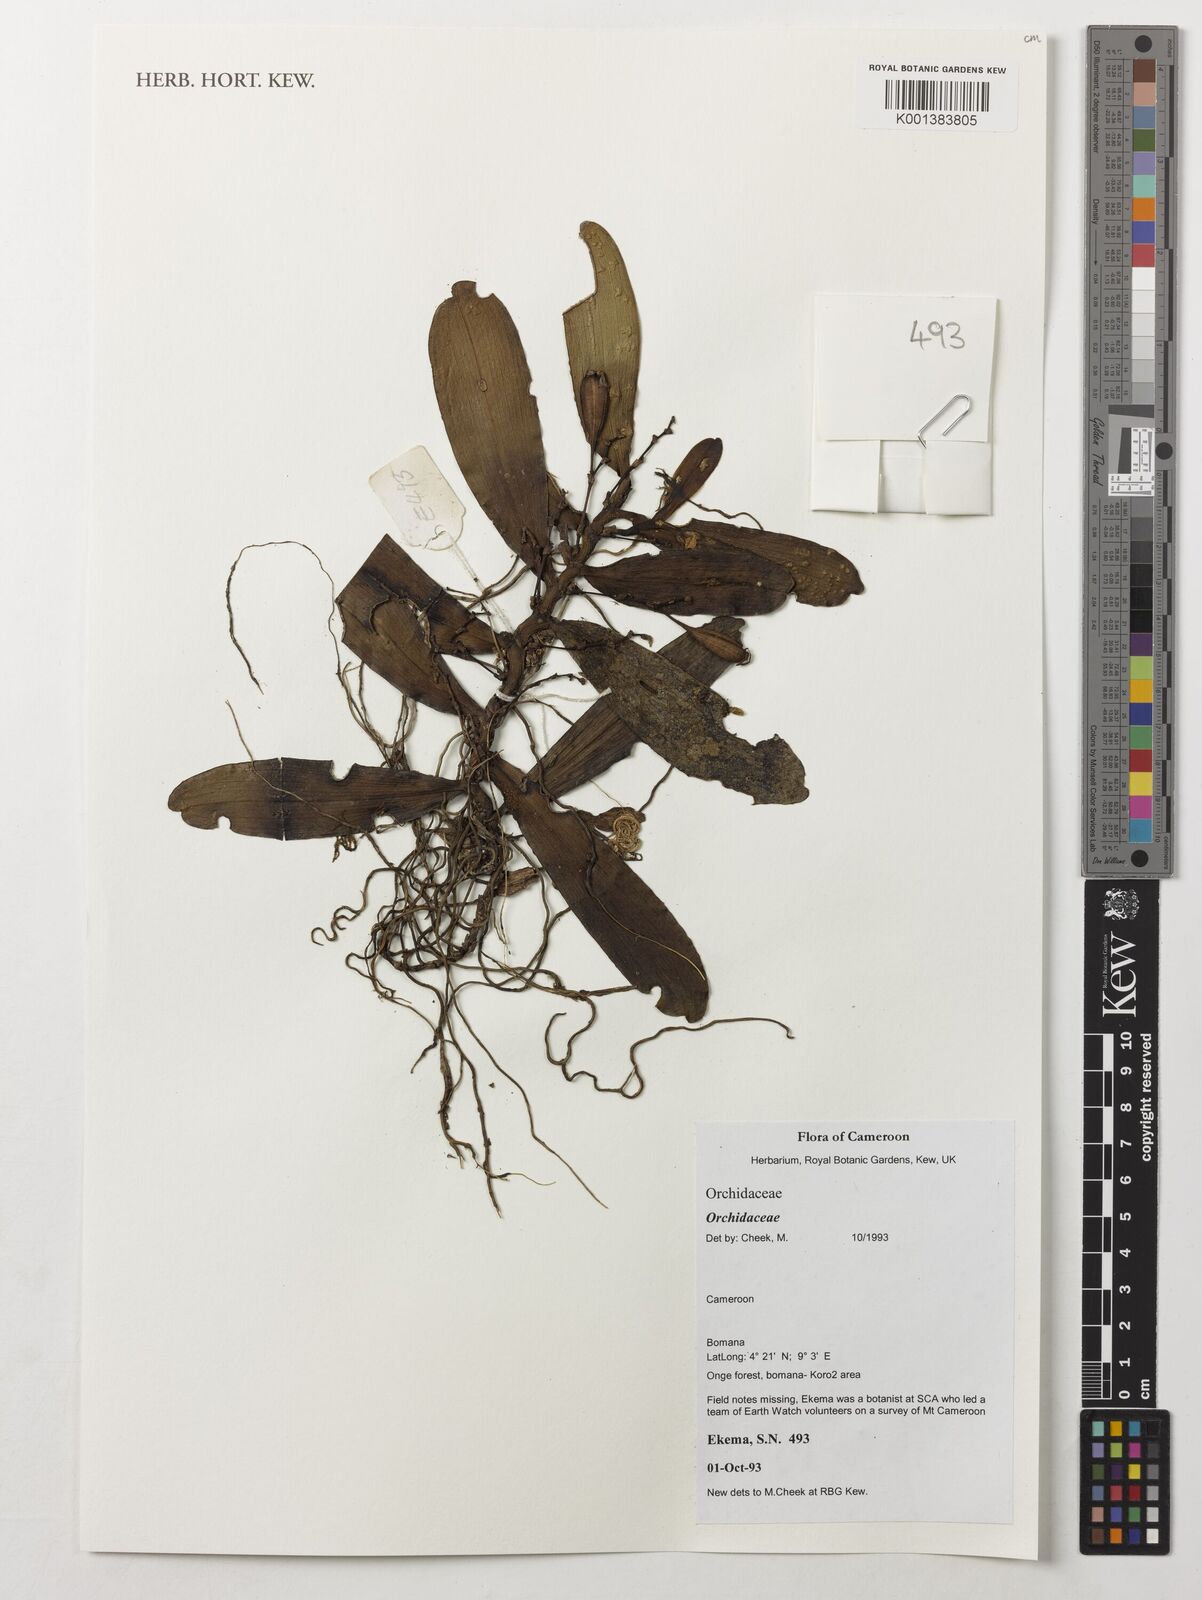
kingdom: Plantae
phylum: Tracheophyta
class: Liliopsida
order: Asparagales
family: Orchidaceae
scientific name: Orchidaceae
